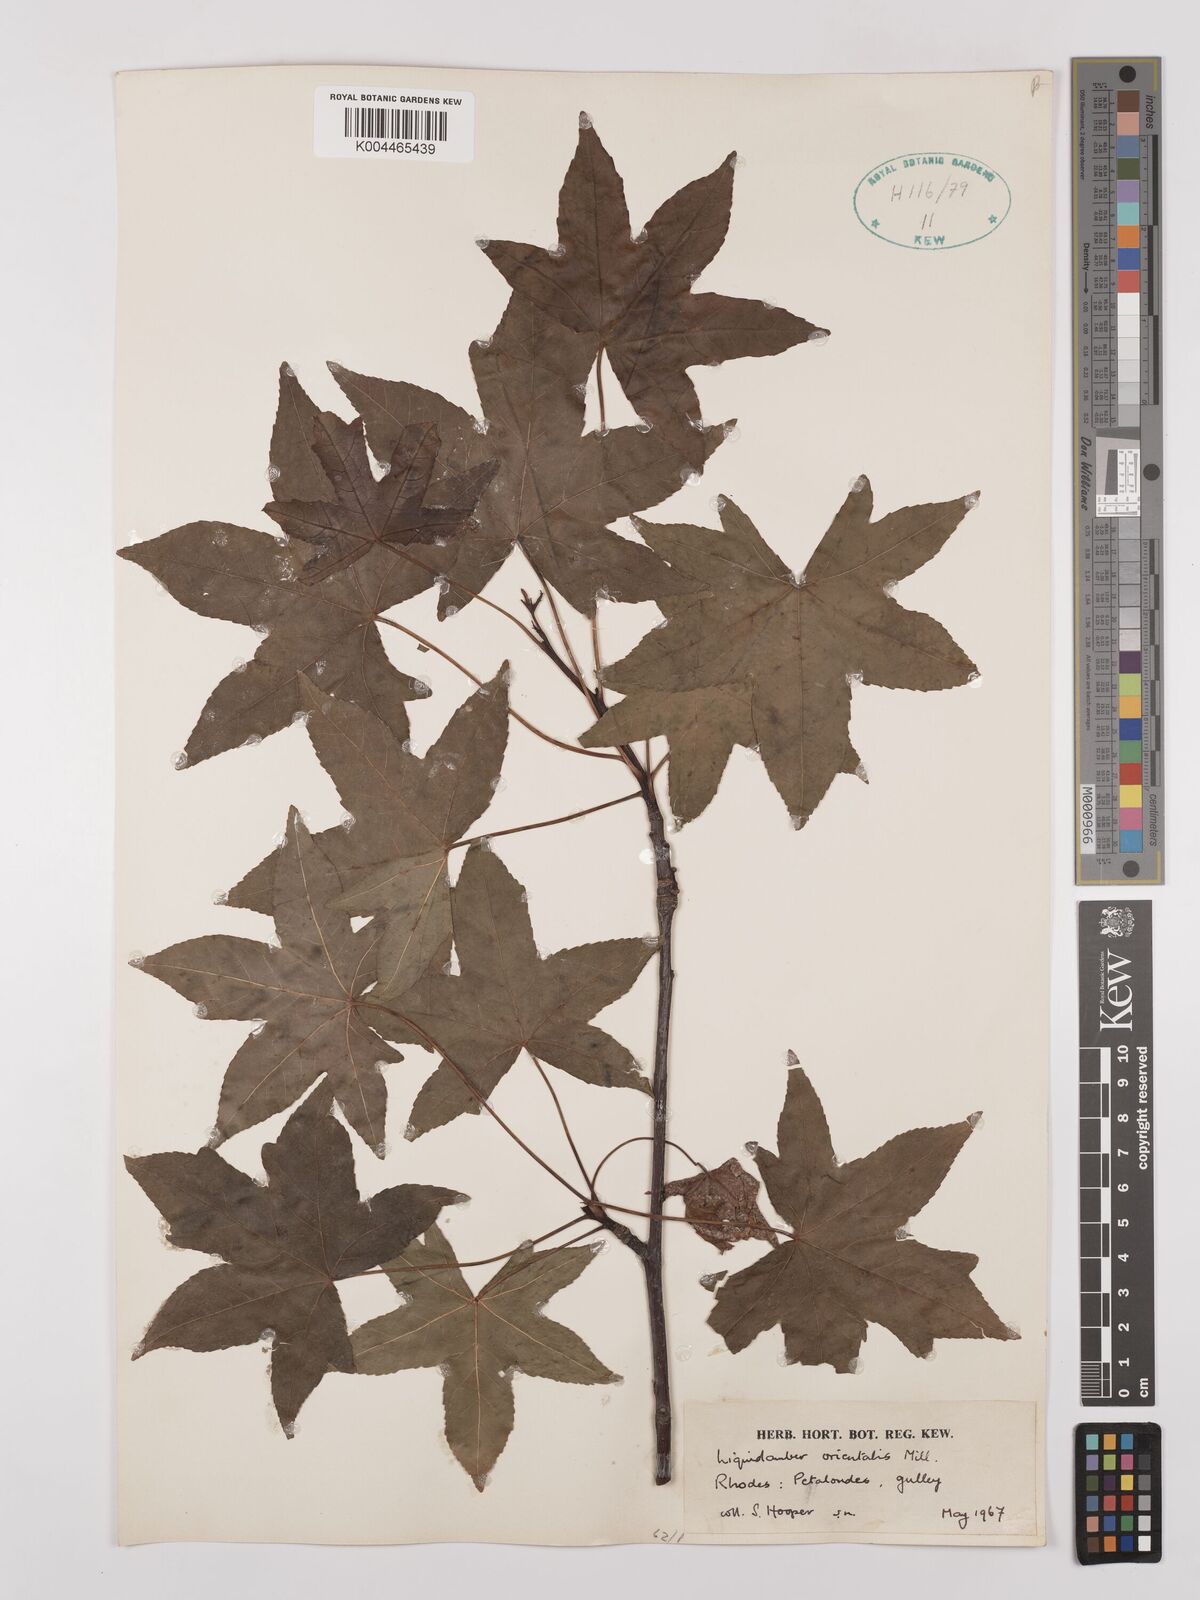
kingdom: Plantae
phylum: Tracheophyta
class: Magnoliopsida
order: Saxifragales
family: Altingiaceae
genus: Liquidambar
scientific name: Liquidambar orientalis
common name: Oriental sweetgum
